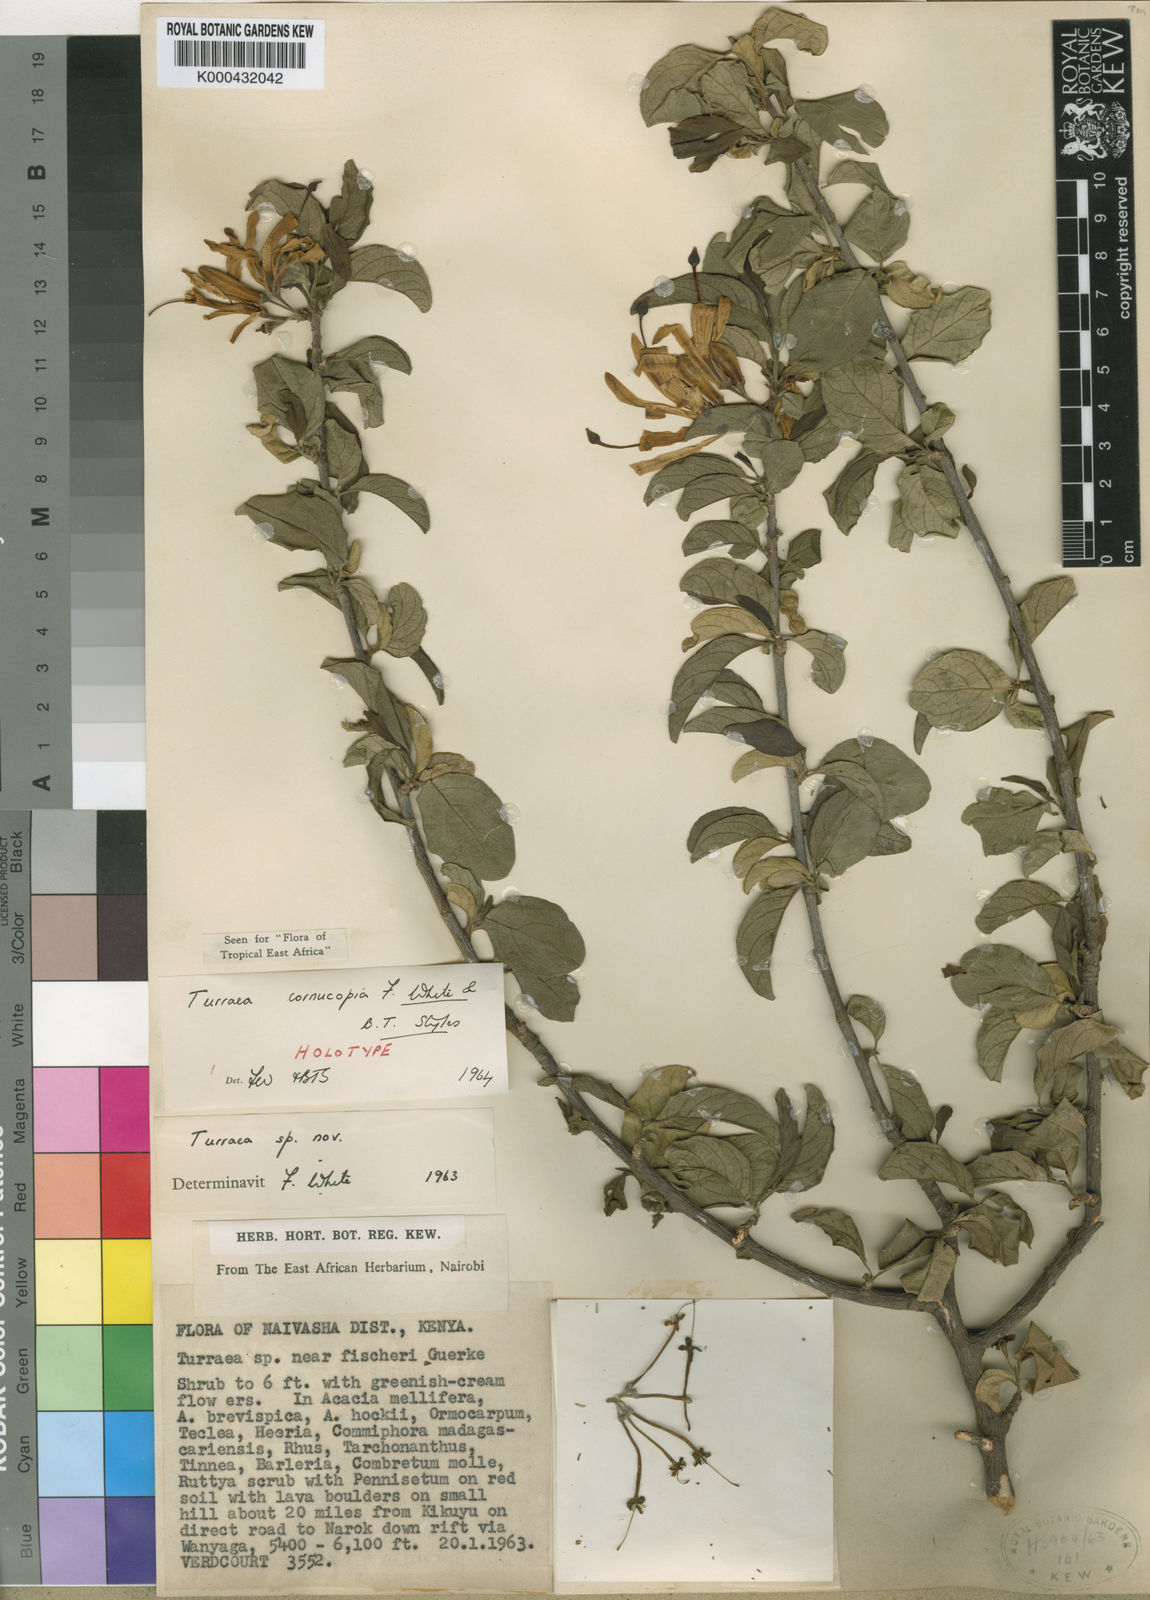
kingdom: Plantae
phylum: Tracheophyta
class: Magnoliopsida
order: Sapindales
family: Meliaceae
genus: Turraea
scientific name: Turraea cornucopia
